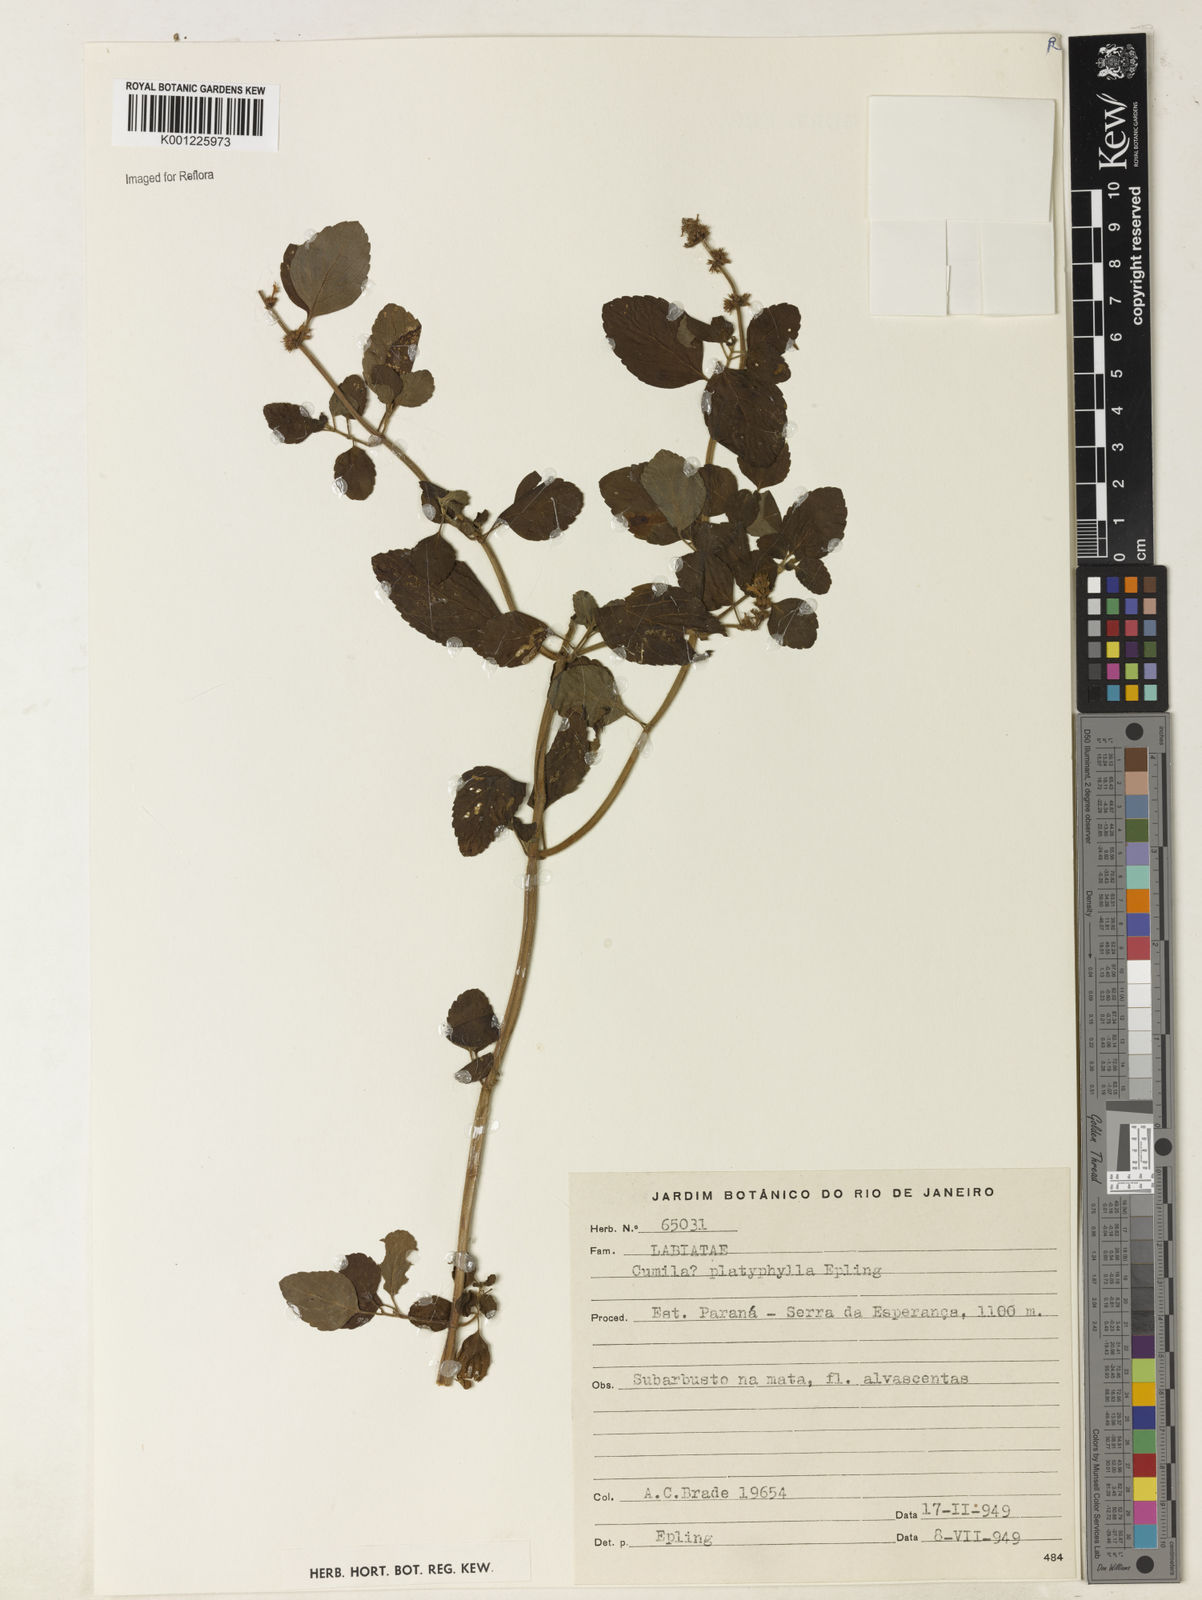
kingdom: Plantae
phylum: Tracheophyta
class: Magnoliopsida
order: Lamiales
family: Lamiaceae
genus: Cunila
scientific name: Cunila platyphylla
